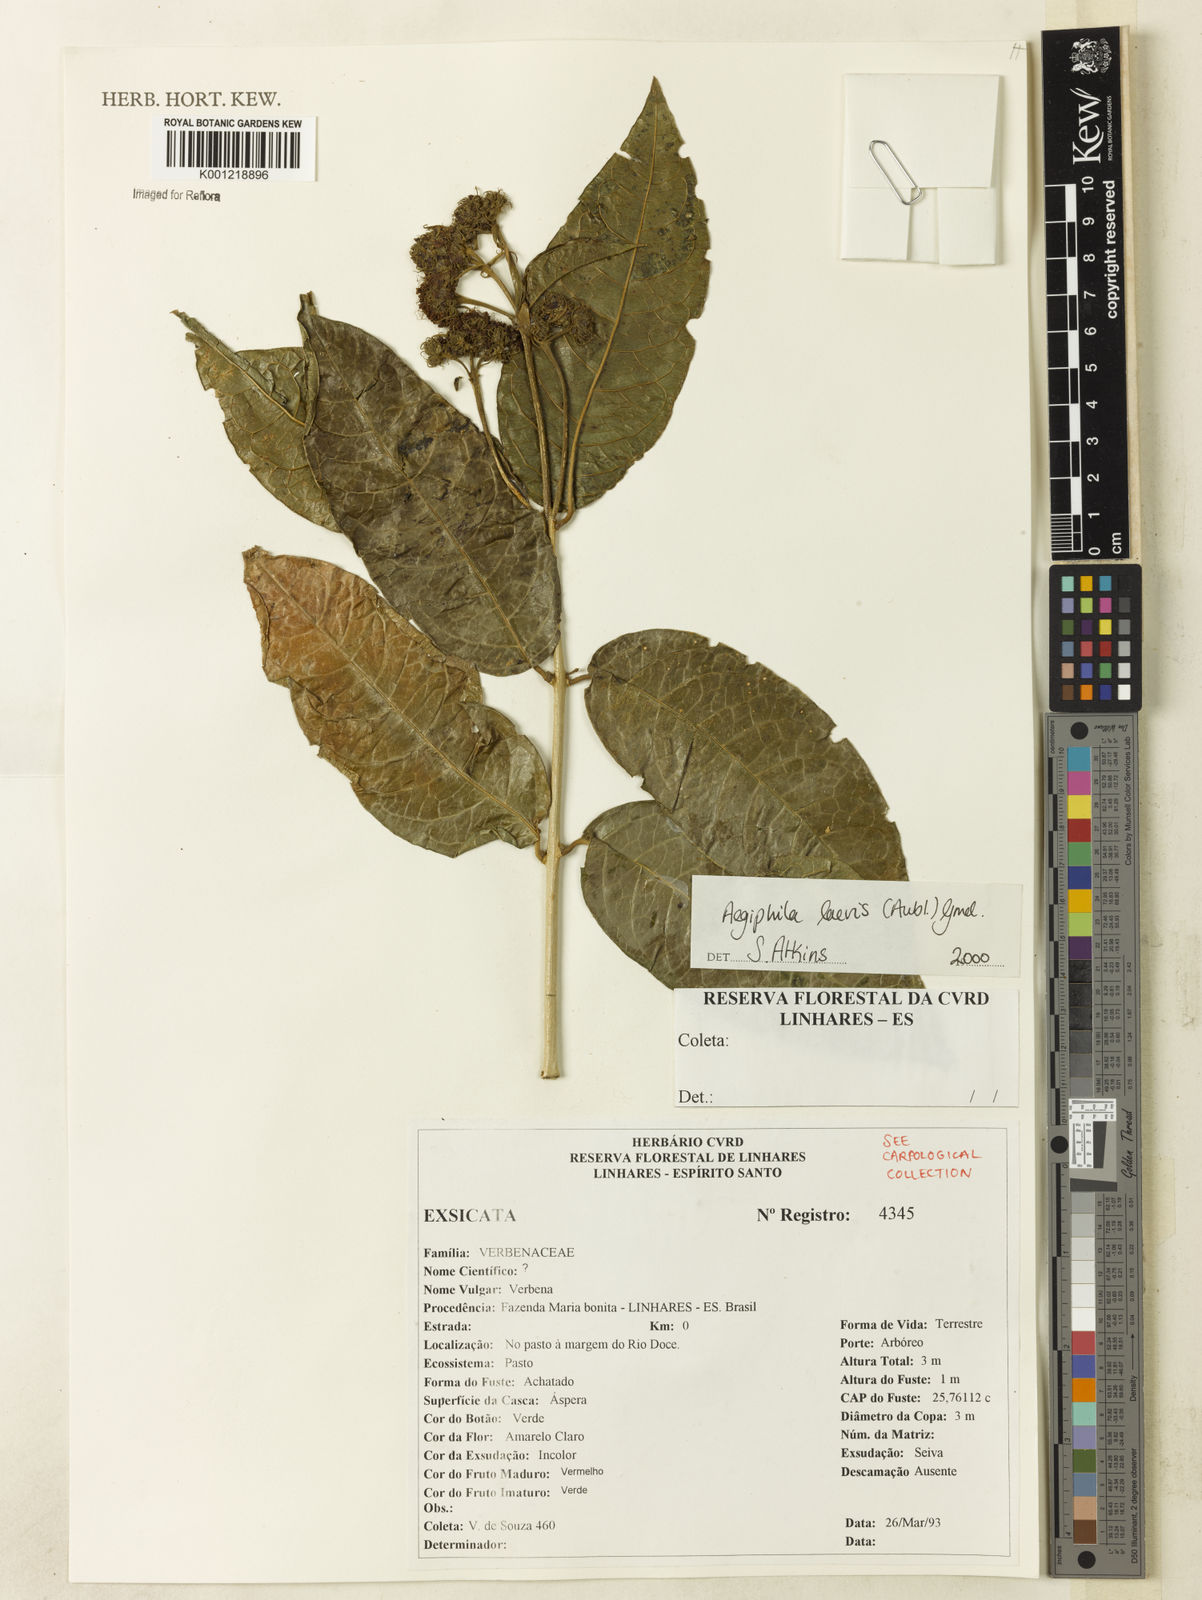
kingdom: Plantae
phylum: Tracheophyta
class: Magnoliopsida
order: Lamiales
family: Lamiaceae
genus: Aegiphila
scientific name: Aegiphila laevis
